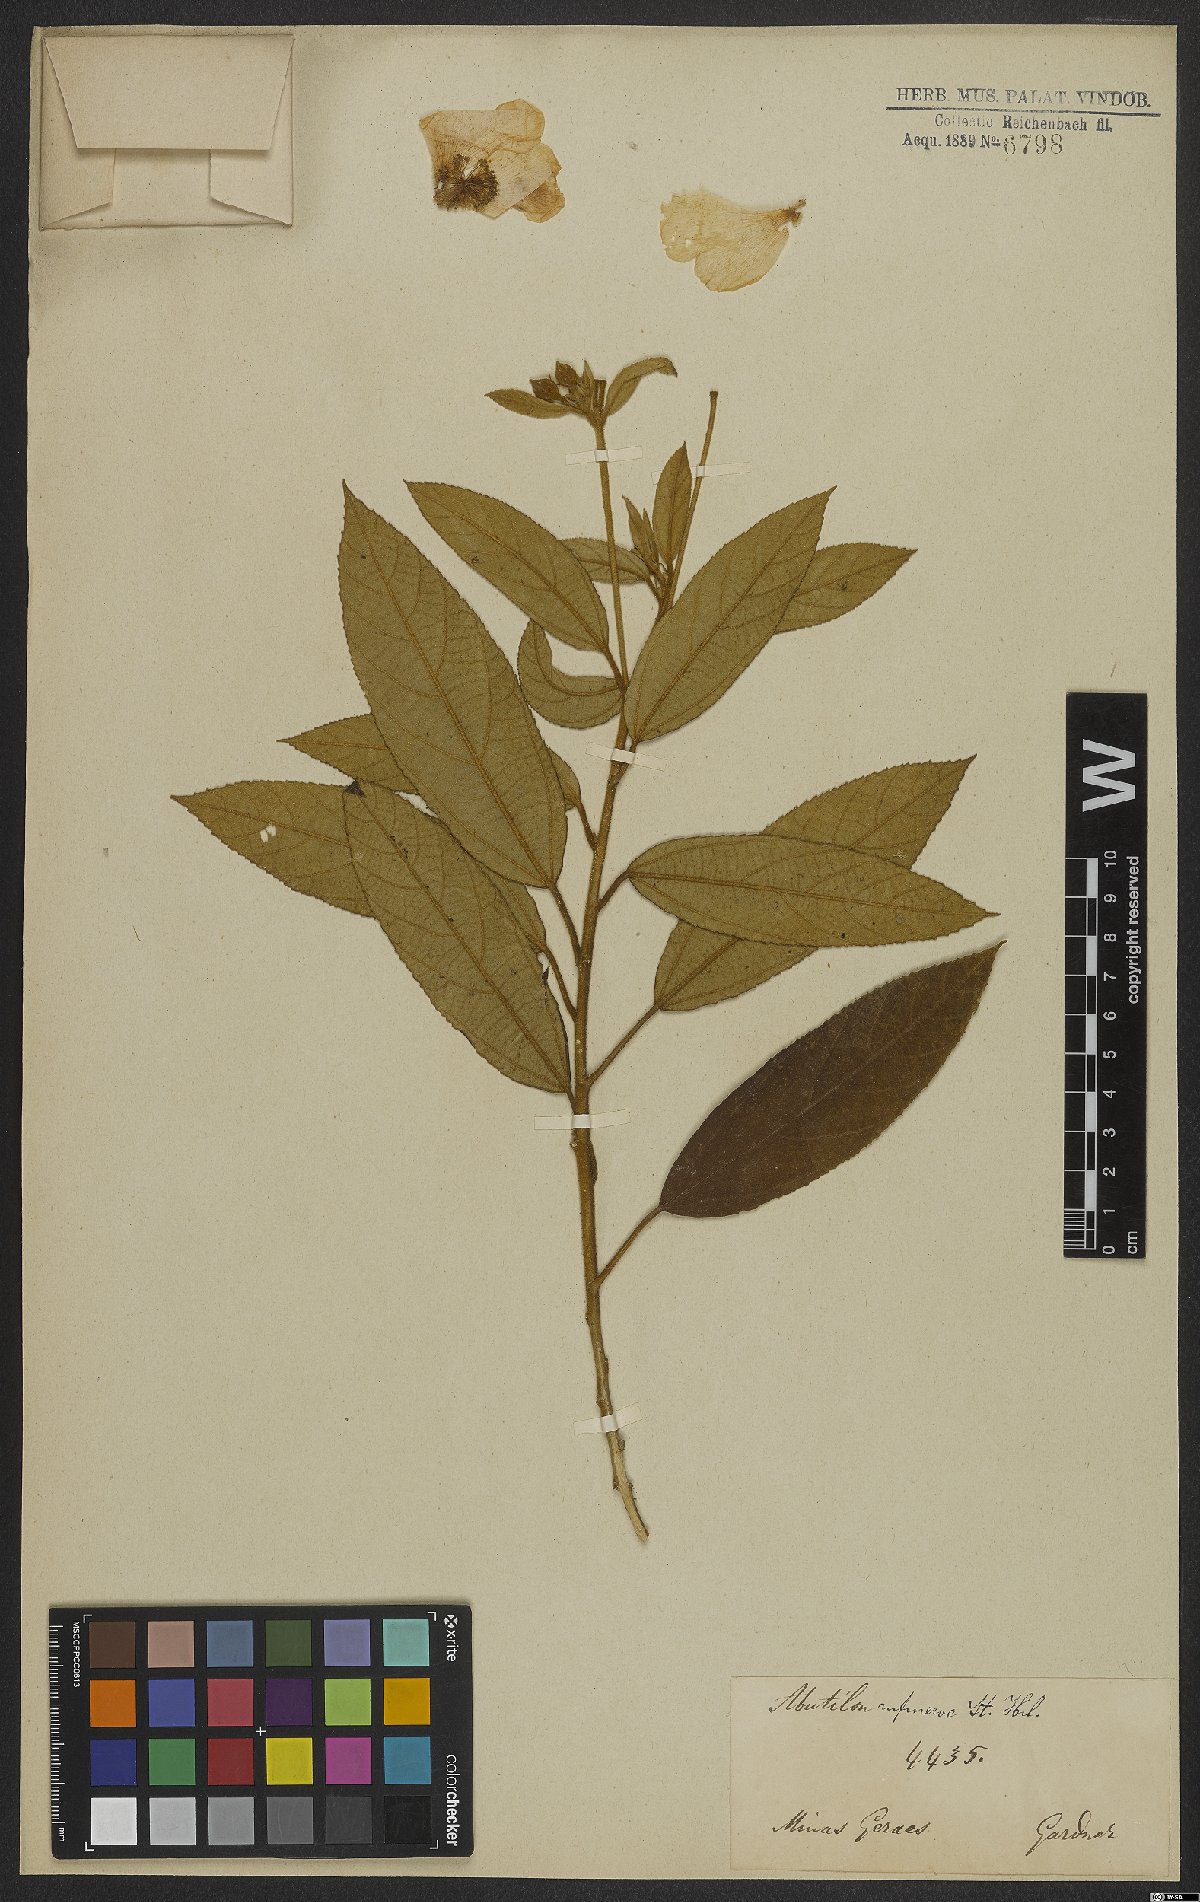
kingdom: Plantae
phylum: Tracheophyta
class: Magnoliopsida
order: Malvales
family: Malvaceae
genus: Callianthe
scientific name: Callianthe rufinerva
